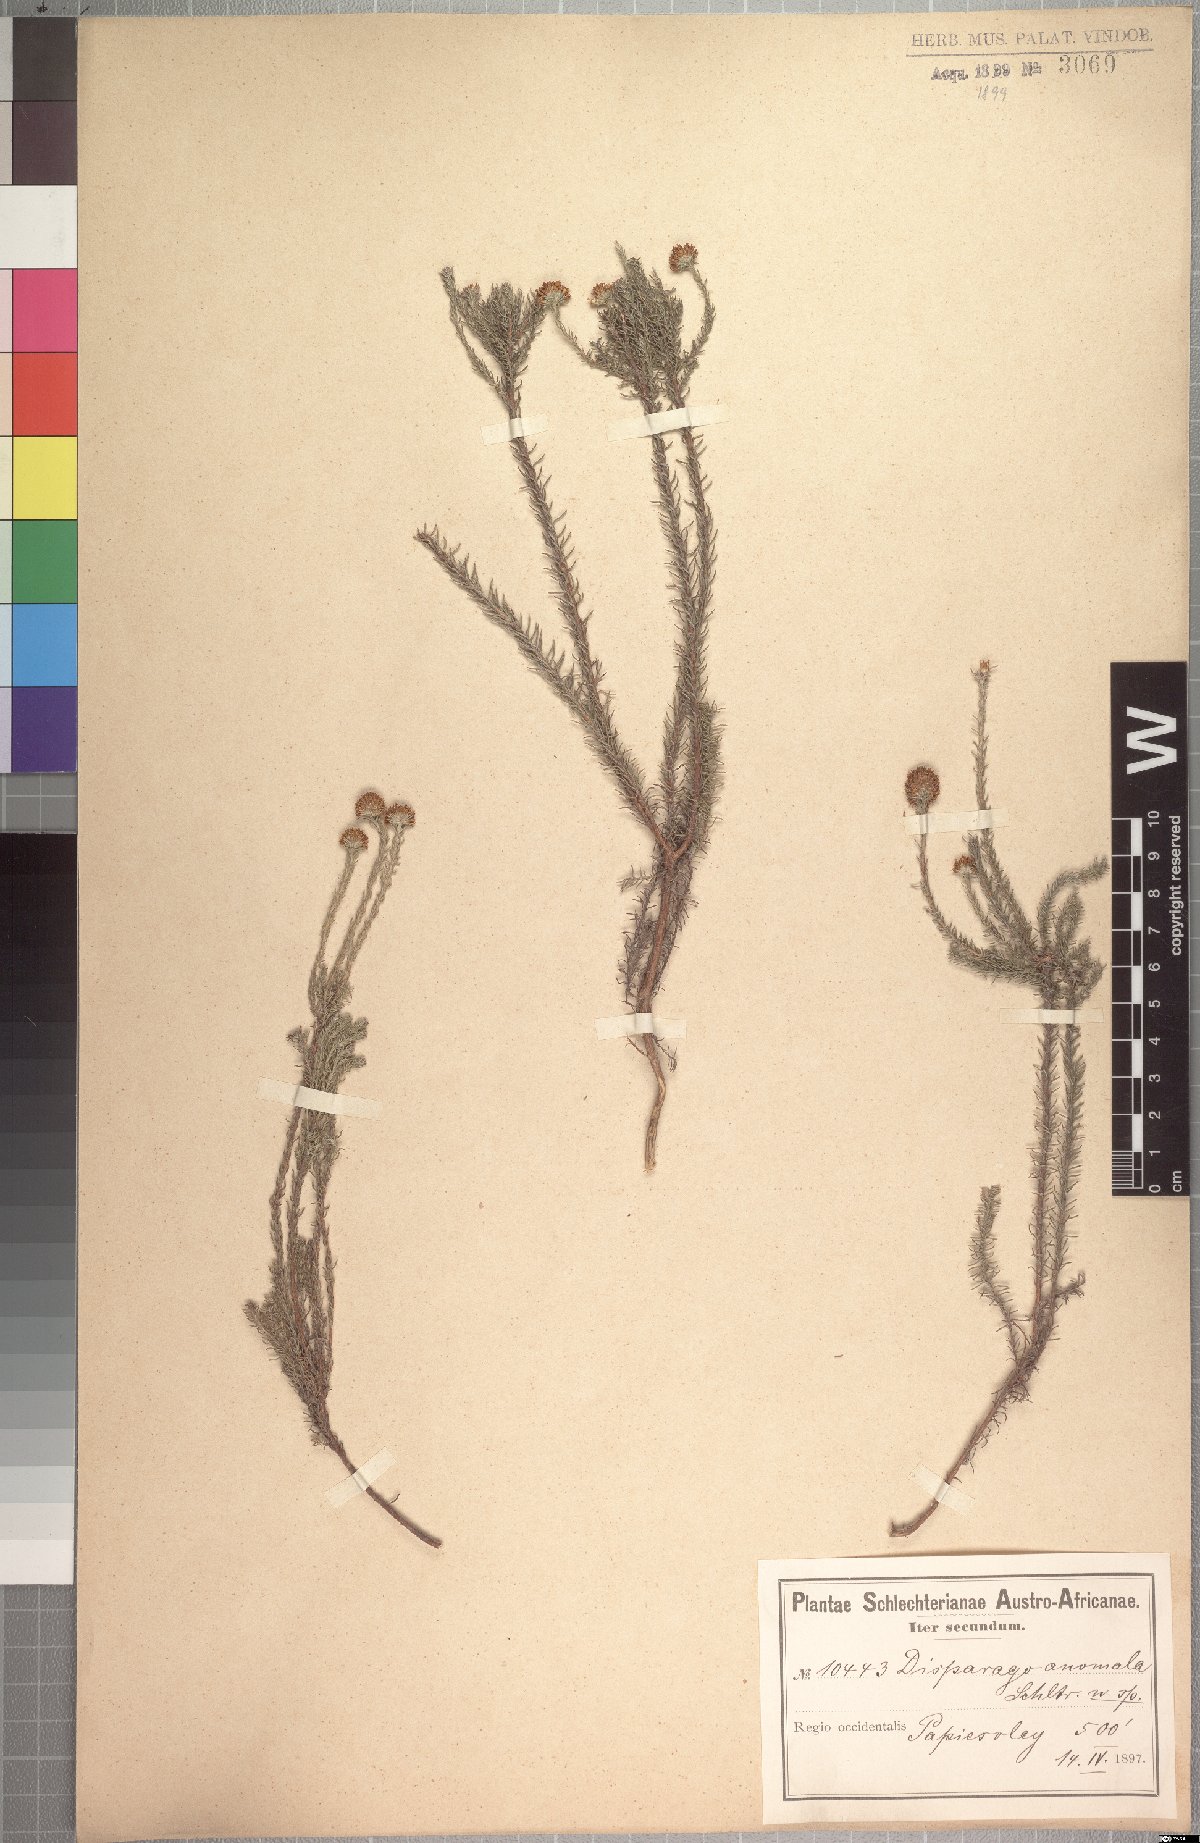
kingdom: Plantae
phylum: Tracheophyta
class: Magnoliopsida
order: Asterales
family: Asteraceae
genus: Disparago
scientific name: Disparago anomala
